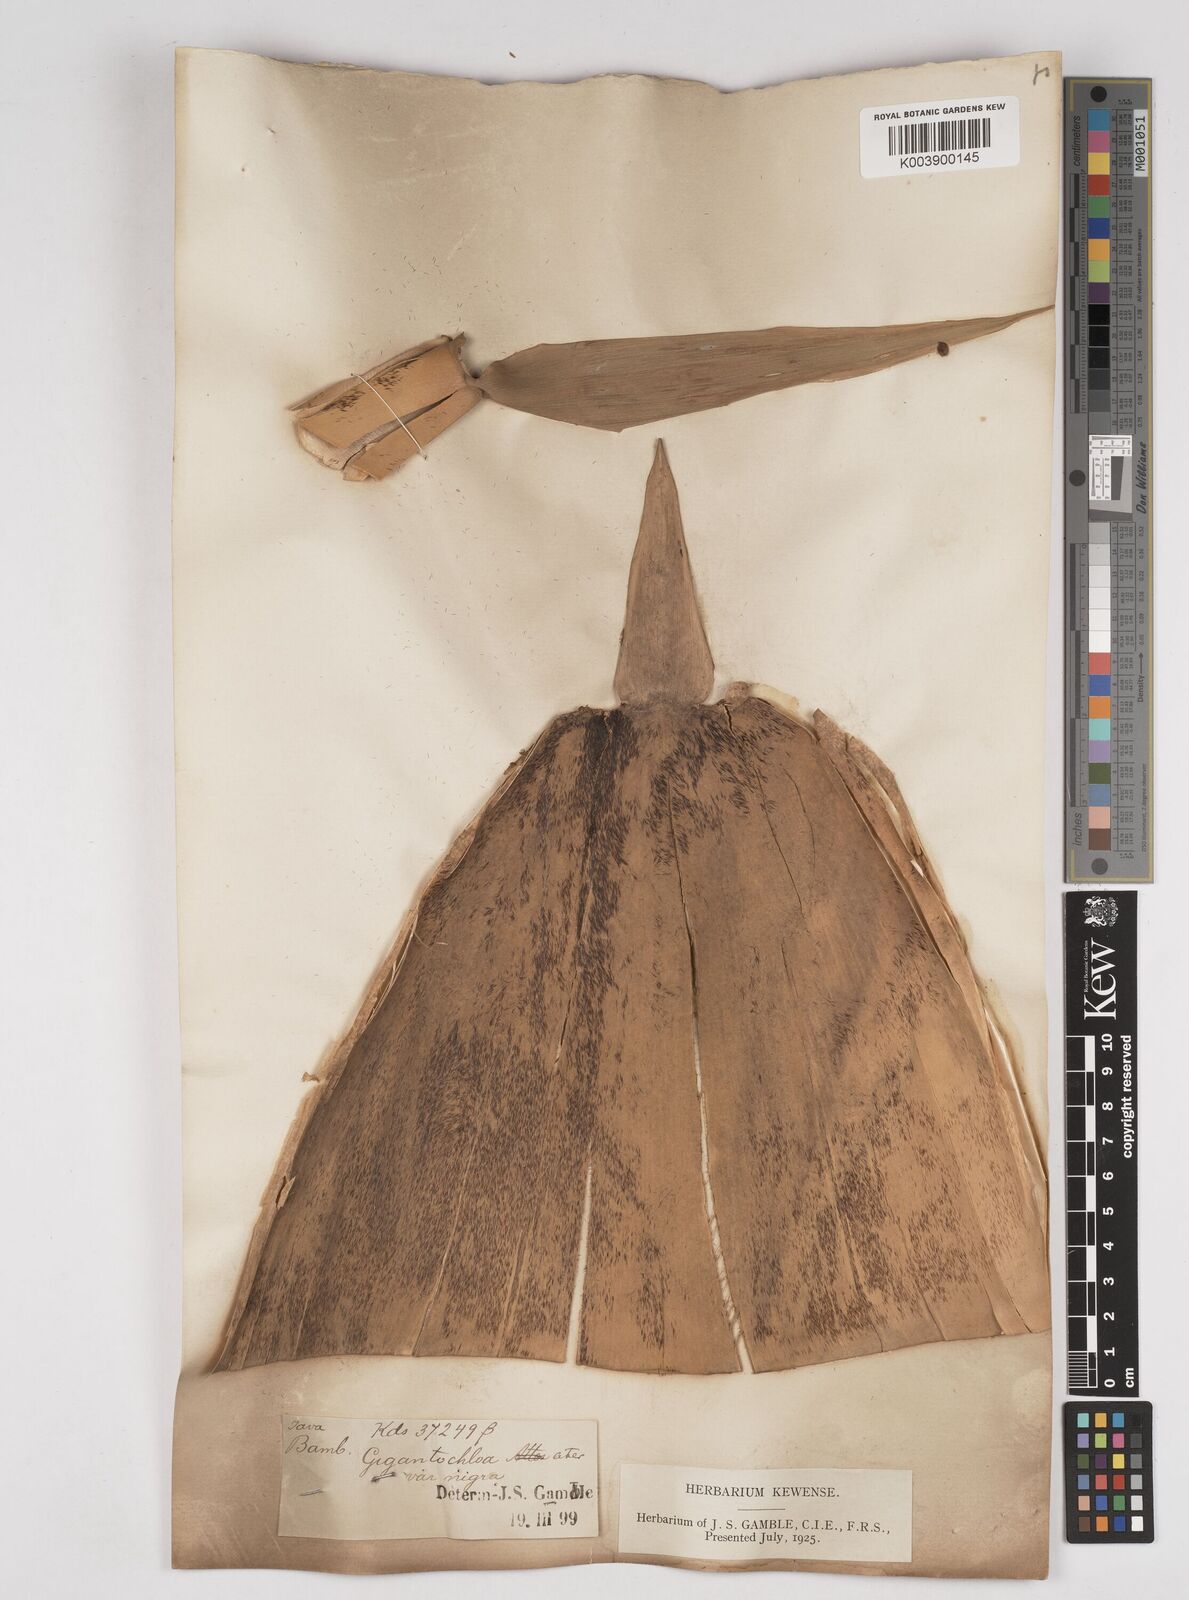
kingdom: Plantae
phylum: Tracheophyta
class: Liliopsida
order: Poales
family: Poaceae
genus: Gigantochloa
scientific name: Gigantochloa atter
